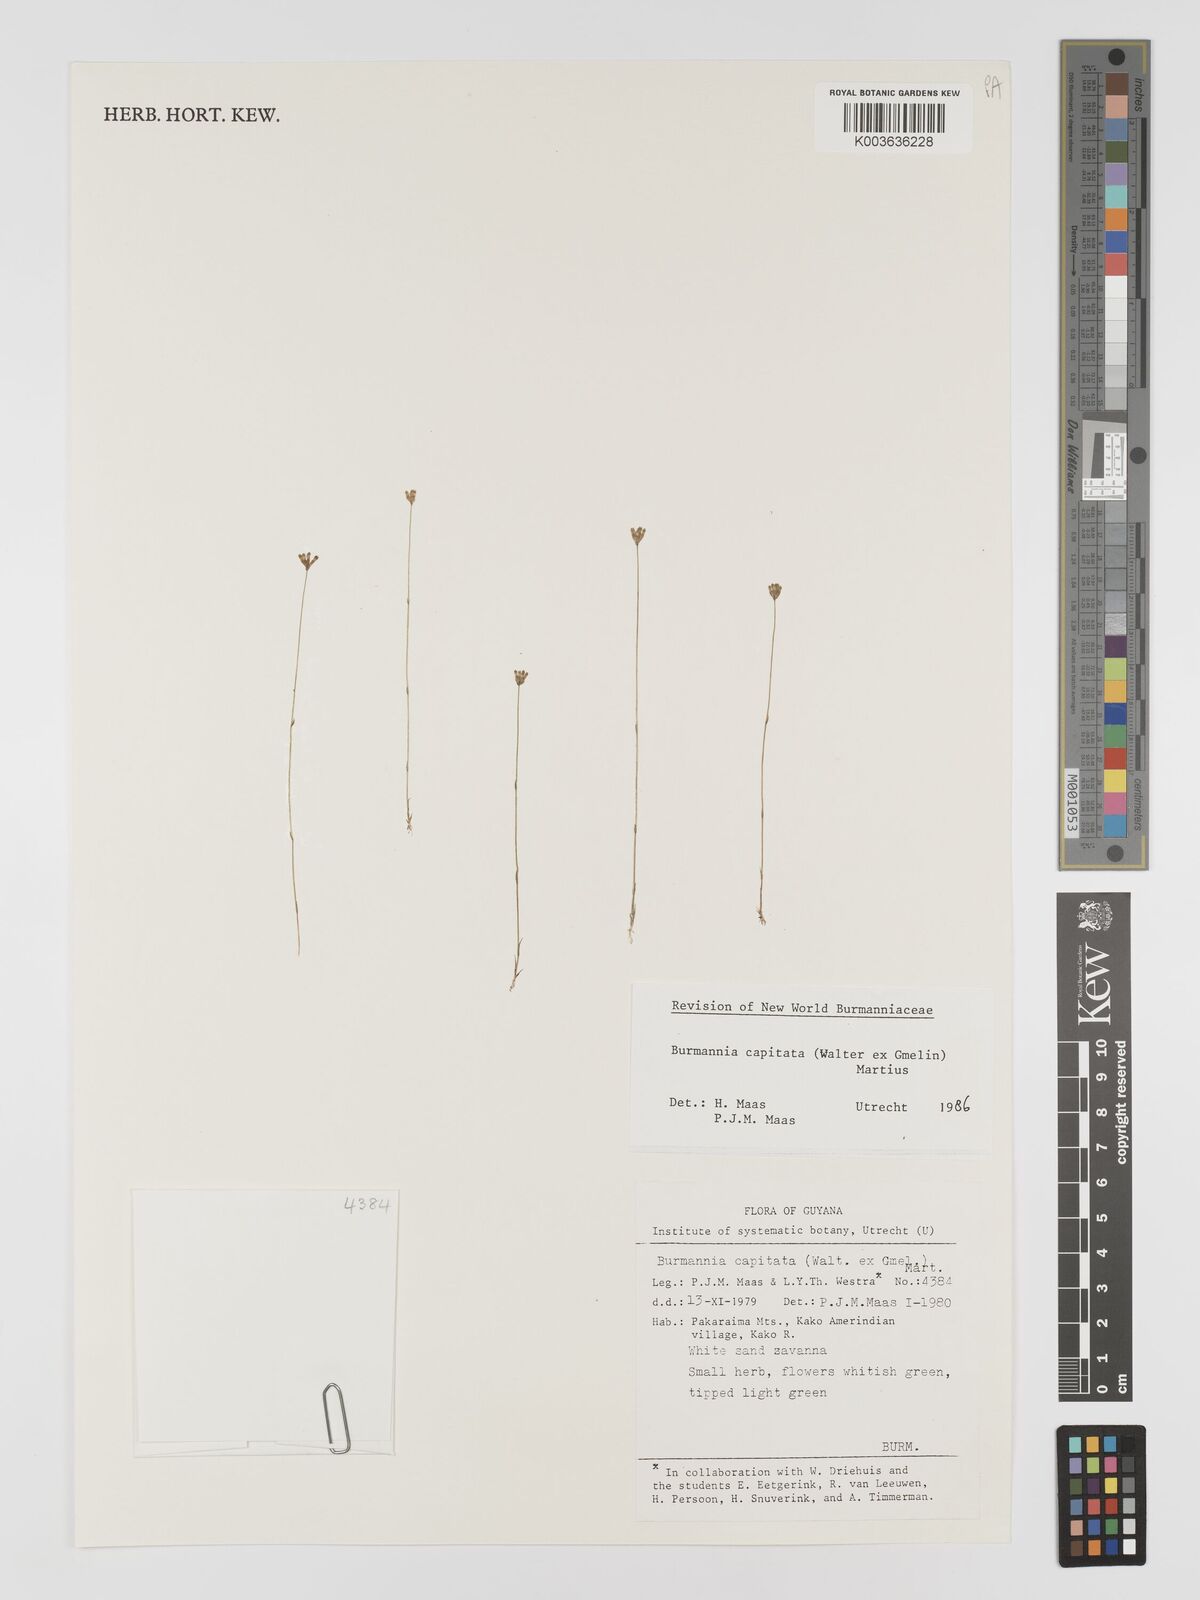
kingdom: Plantae
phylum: Tracheophyta
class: Liliopsida
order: Dioscoreales
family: Burmanniaceae
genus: Burmannia
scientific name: Burmannia capitata
